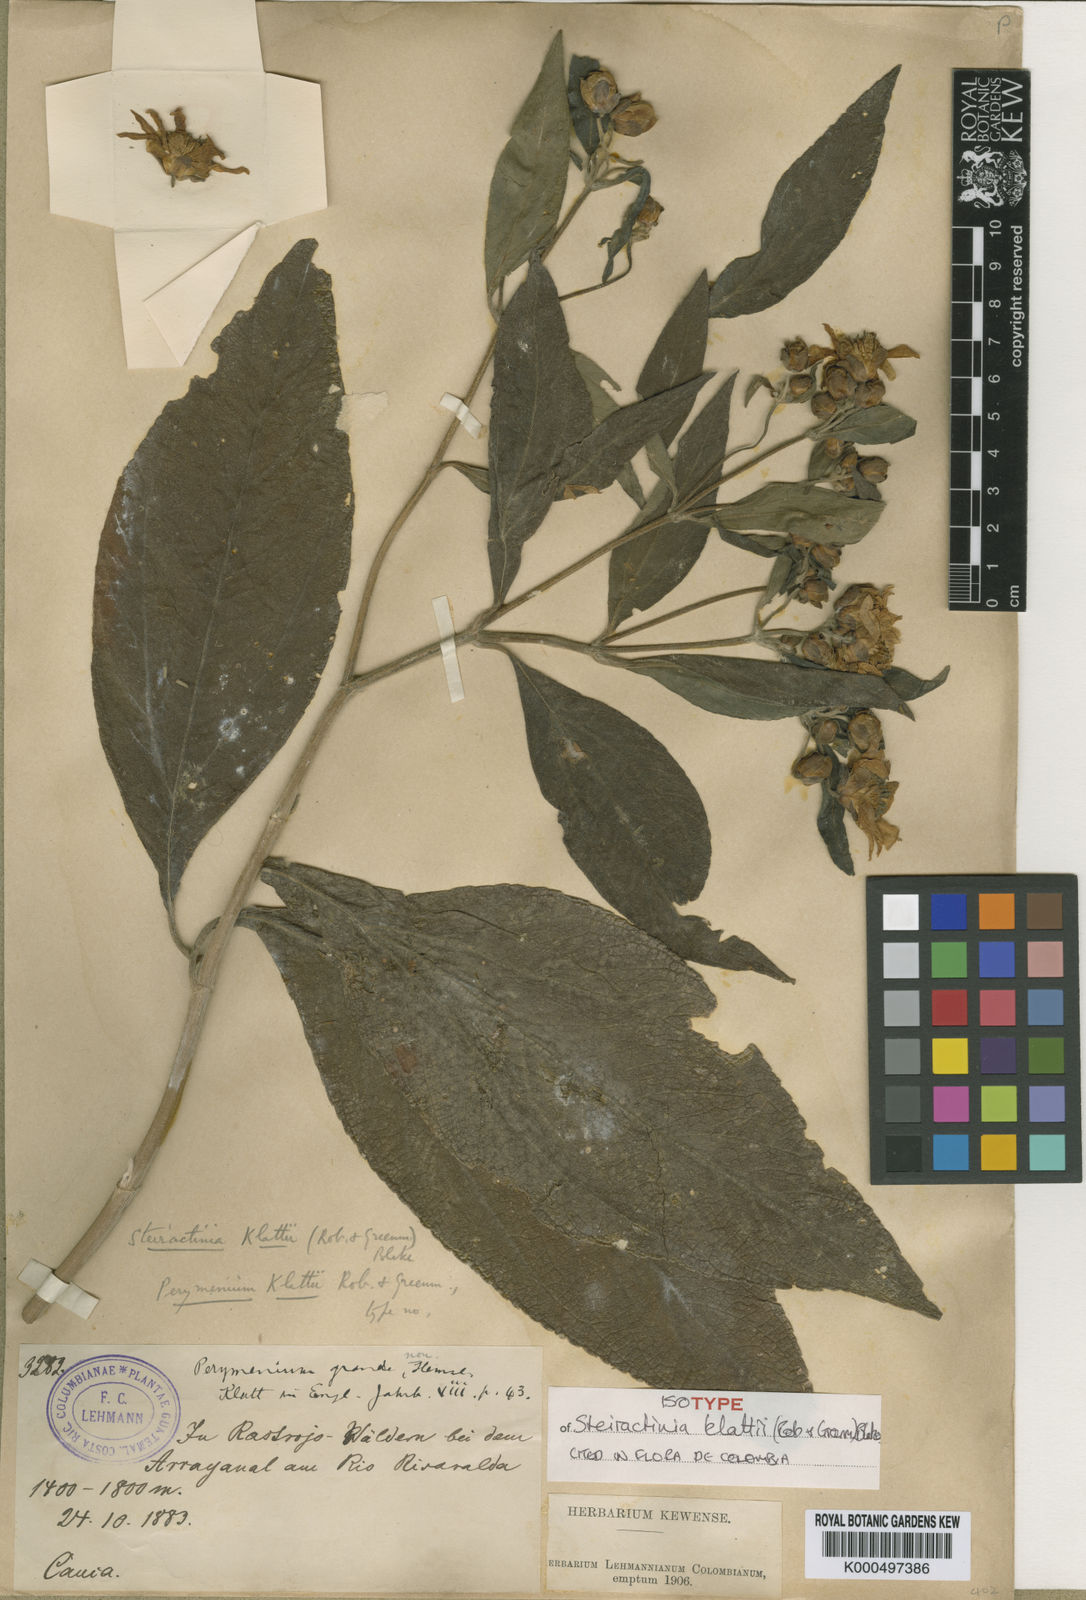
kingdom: Plantae
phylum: Tracheophyta
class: Magnoliopsida
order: Asterales
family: Asteraceae
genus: Steiractinia
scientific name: Steiractinia klattii
